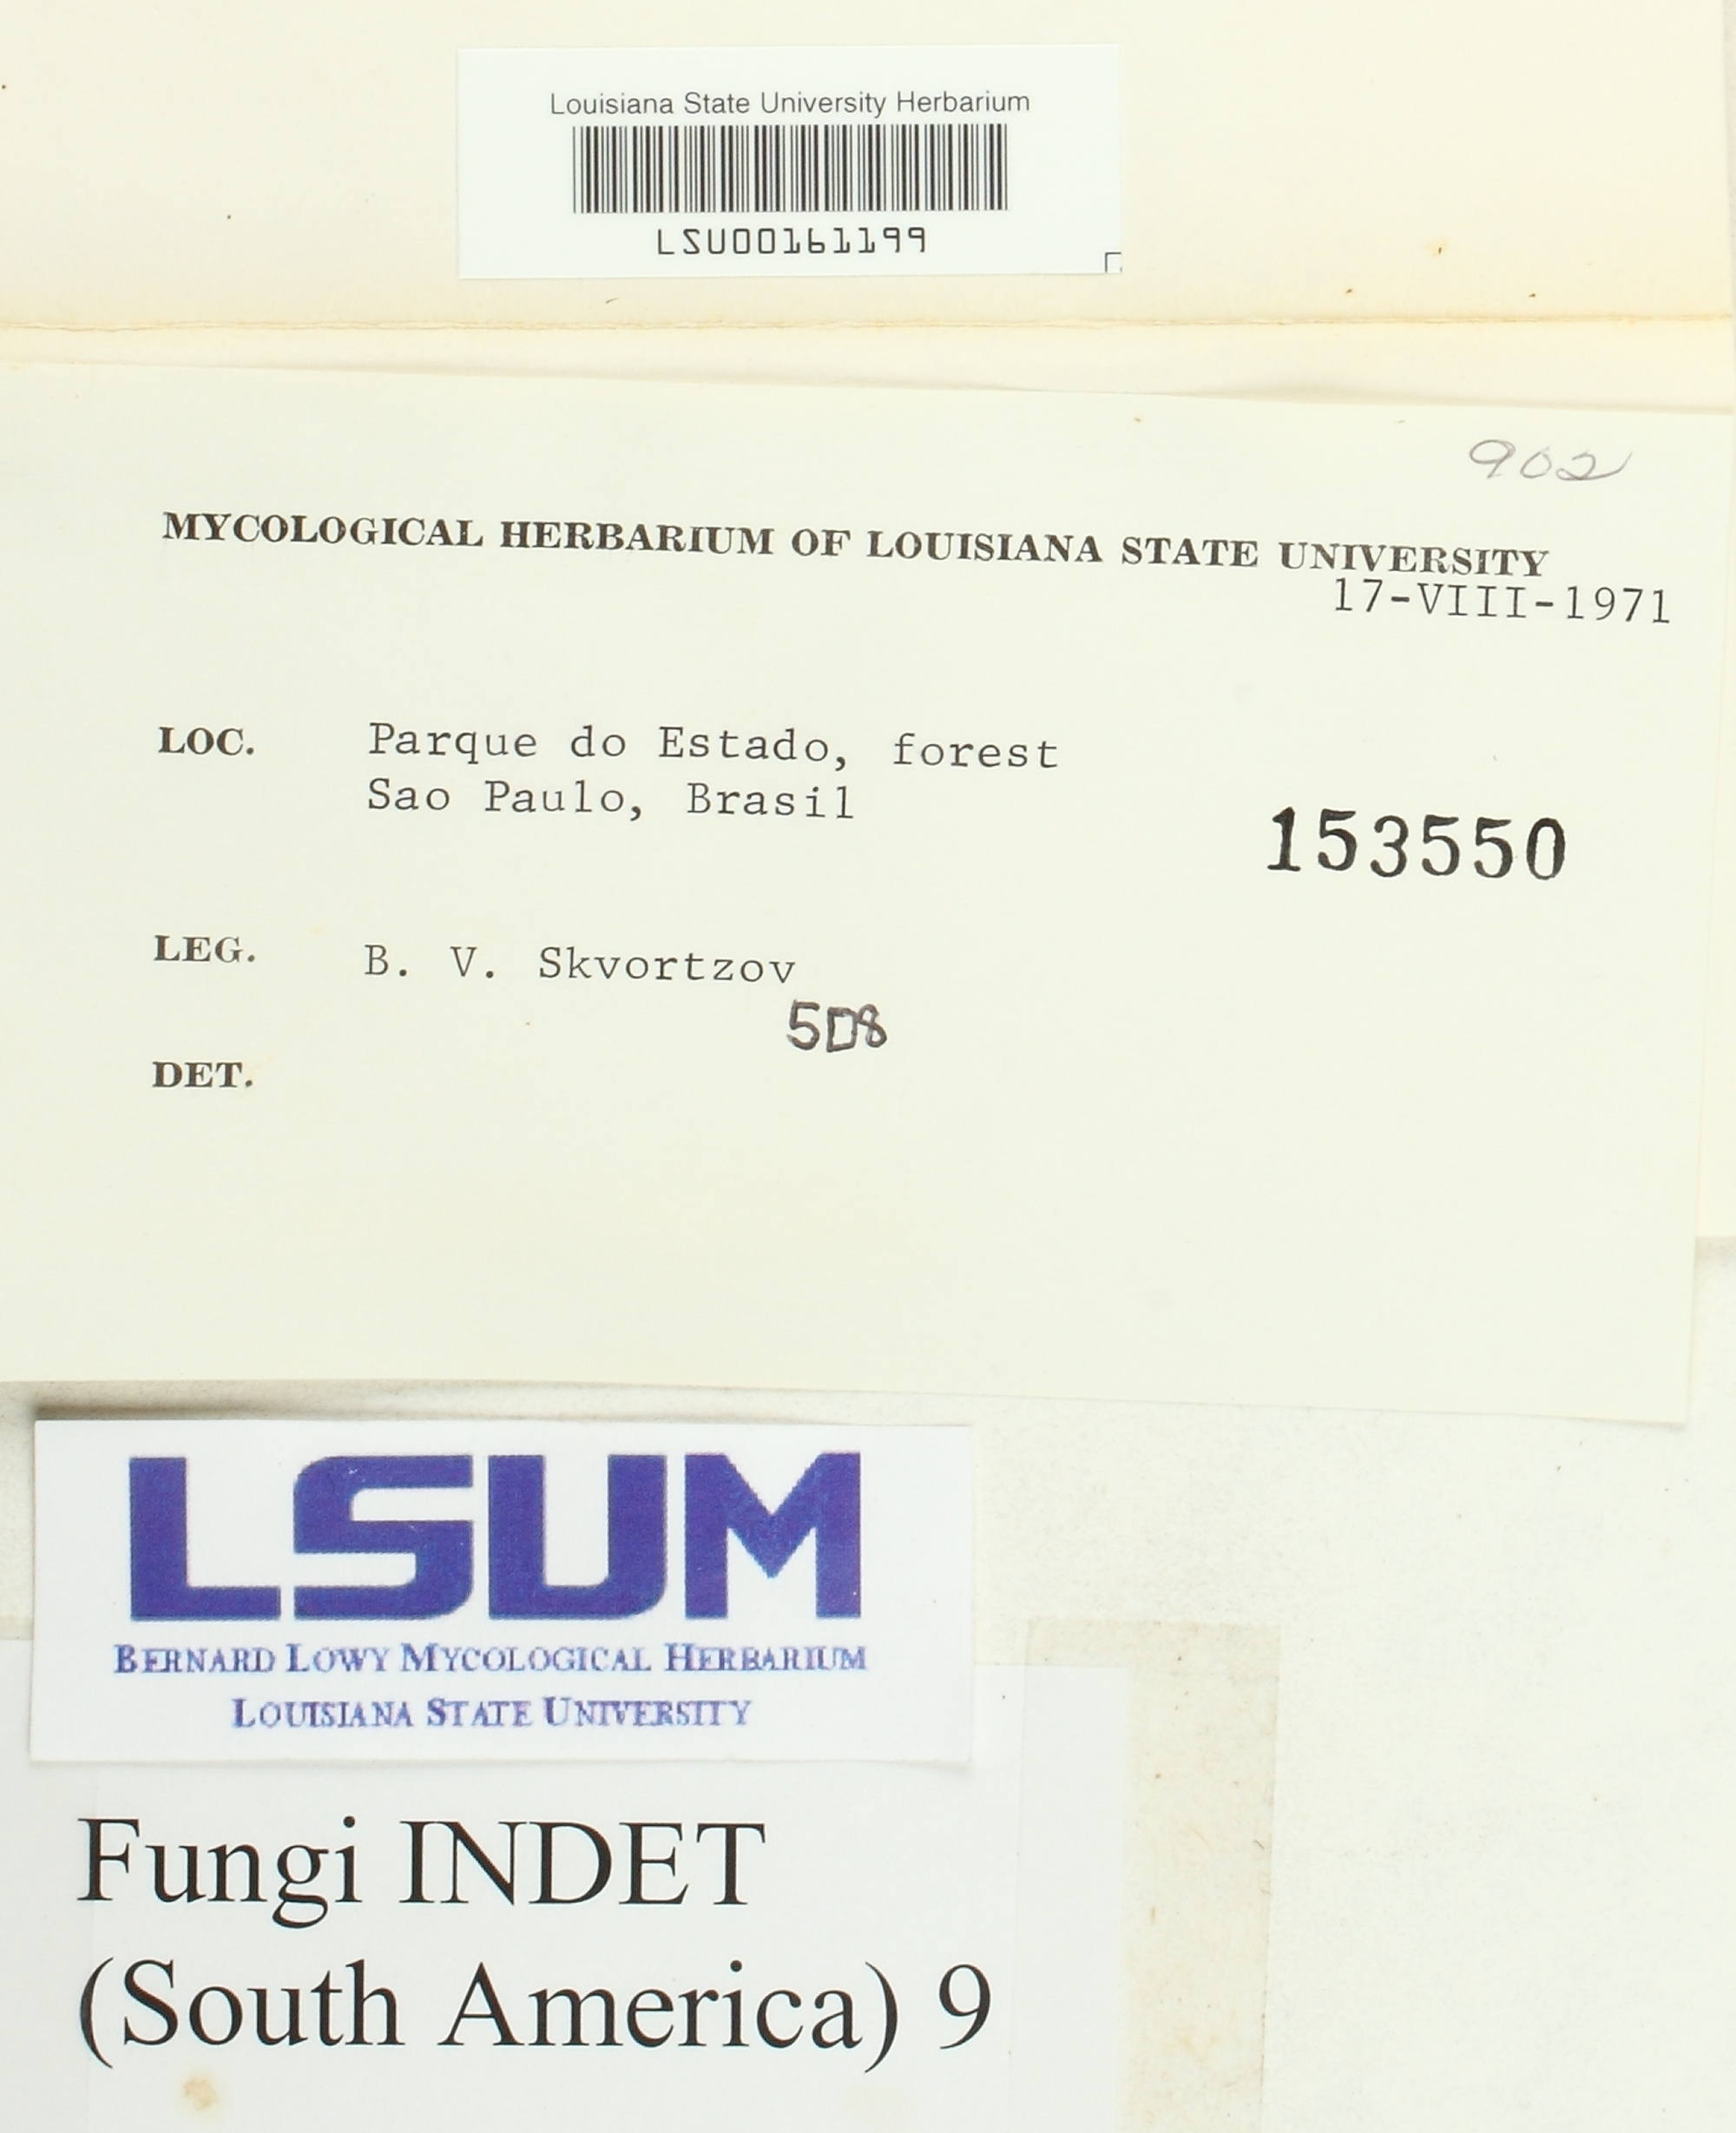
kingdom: Fungi
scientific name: Fungi
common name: Fungi
